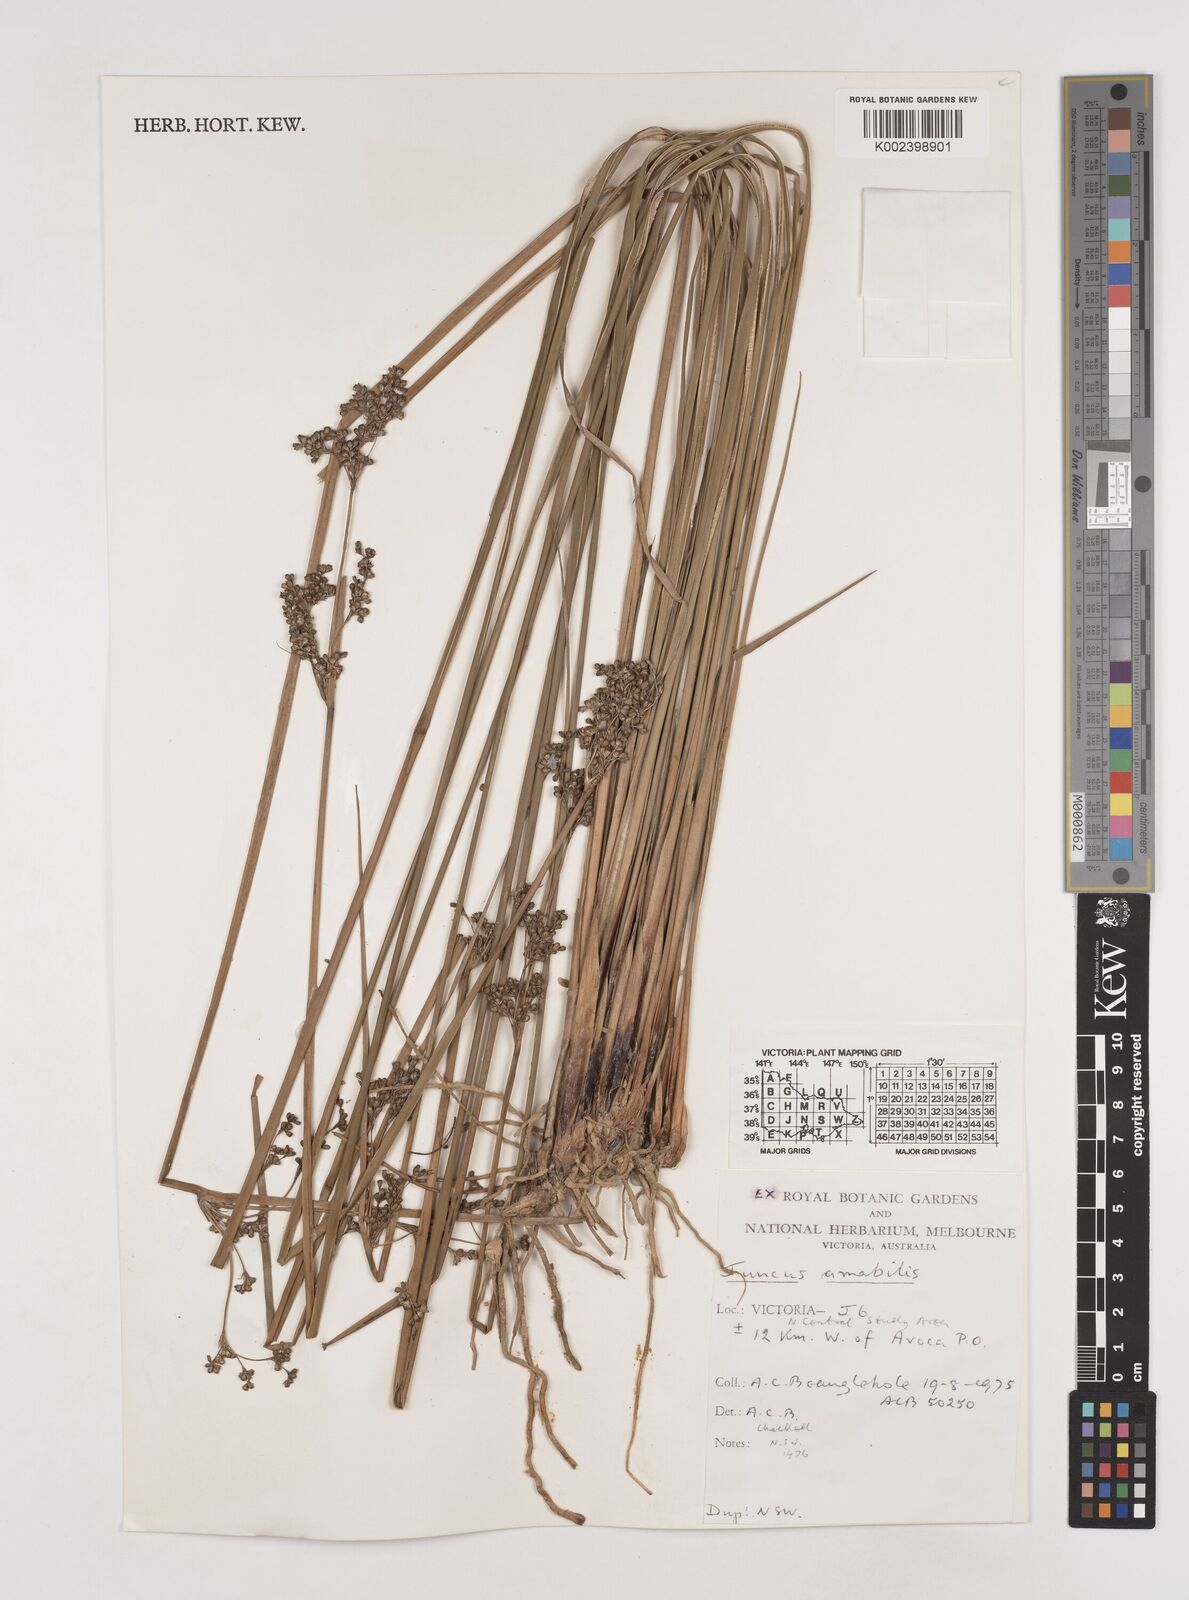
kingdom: Plantae
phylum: Tracheophyta
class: Liliopsida
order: Poales
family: Juncaceae
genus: Juncus
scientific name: Juncus amabilis
